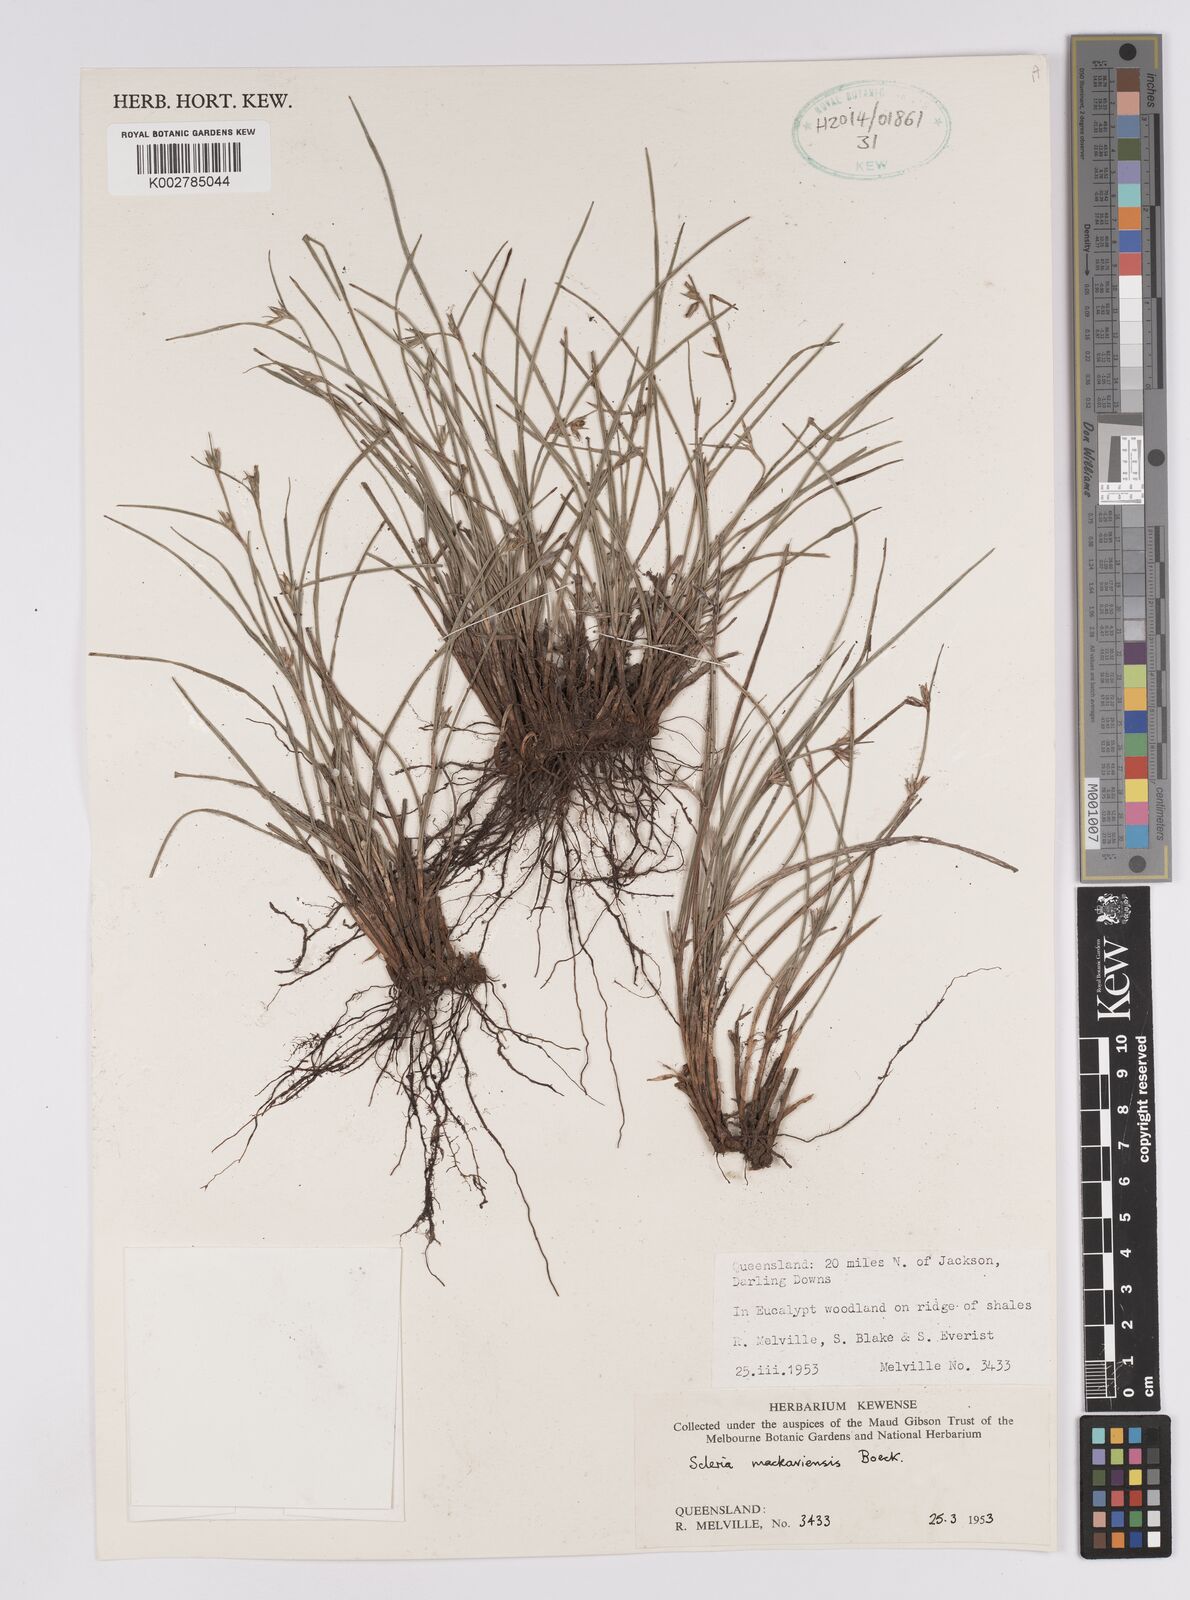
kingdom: Plantae
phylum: Tracheophyta
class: Liliopsida
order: Poales
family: Cyperaceae
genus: Scleria
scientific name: Scleria mackaviensis
